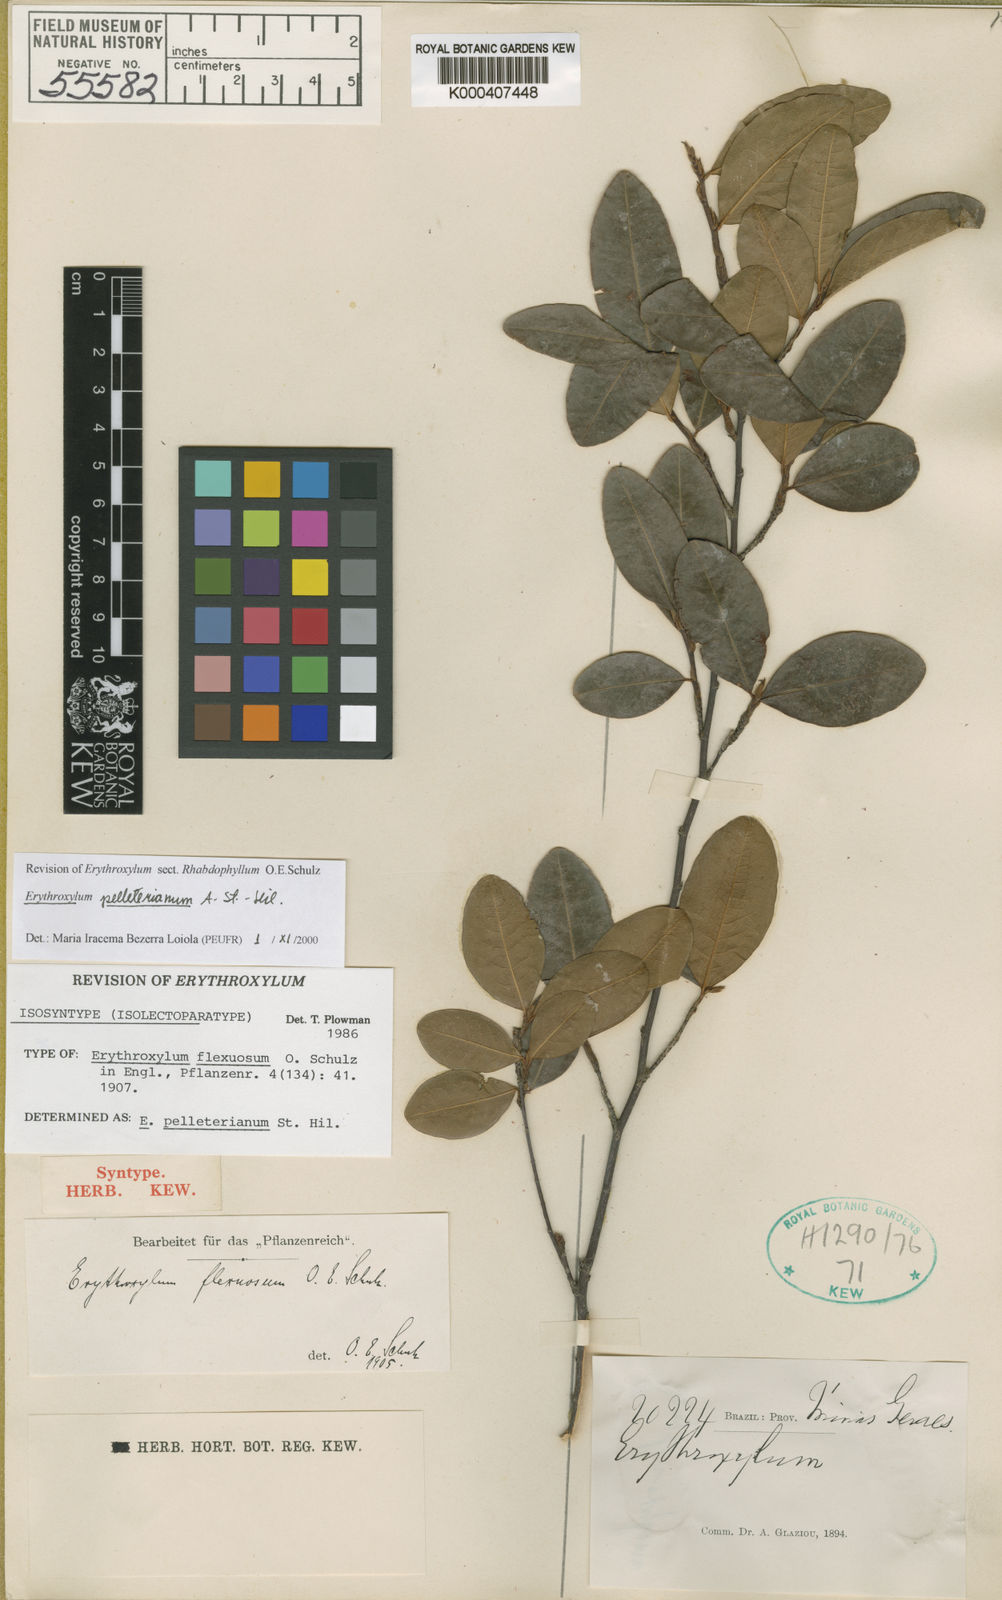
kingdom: Plantae
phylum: Tracheophyta
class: Magnoliopsida
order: Malpighiales
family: Erythroxylaceae
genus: Erythroxylum
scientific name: Erythroxylum pelleterianum
